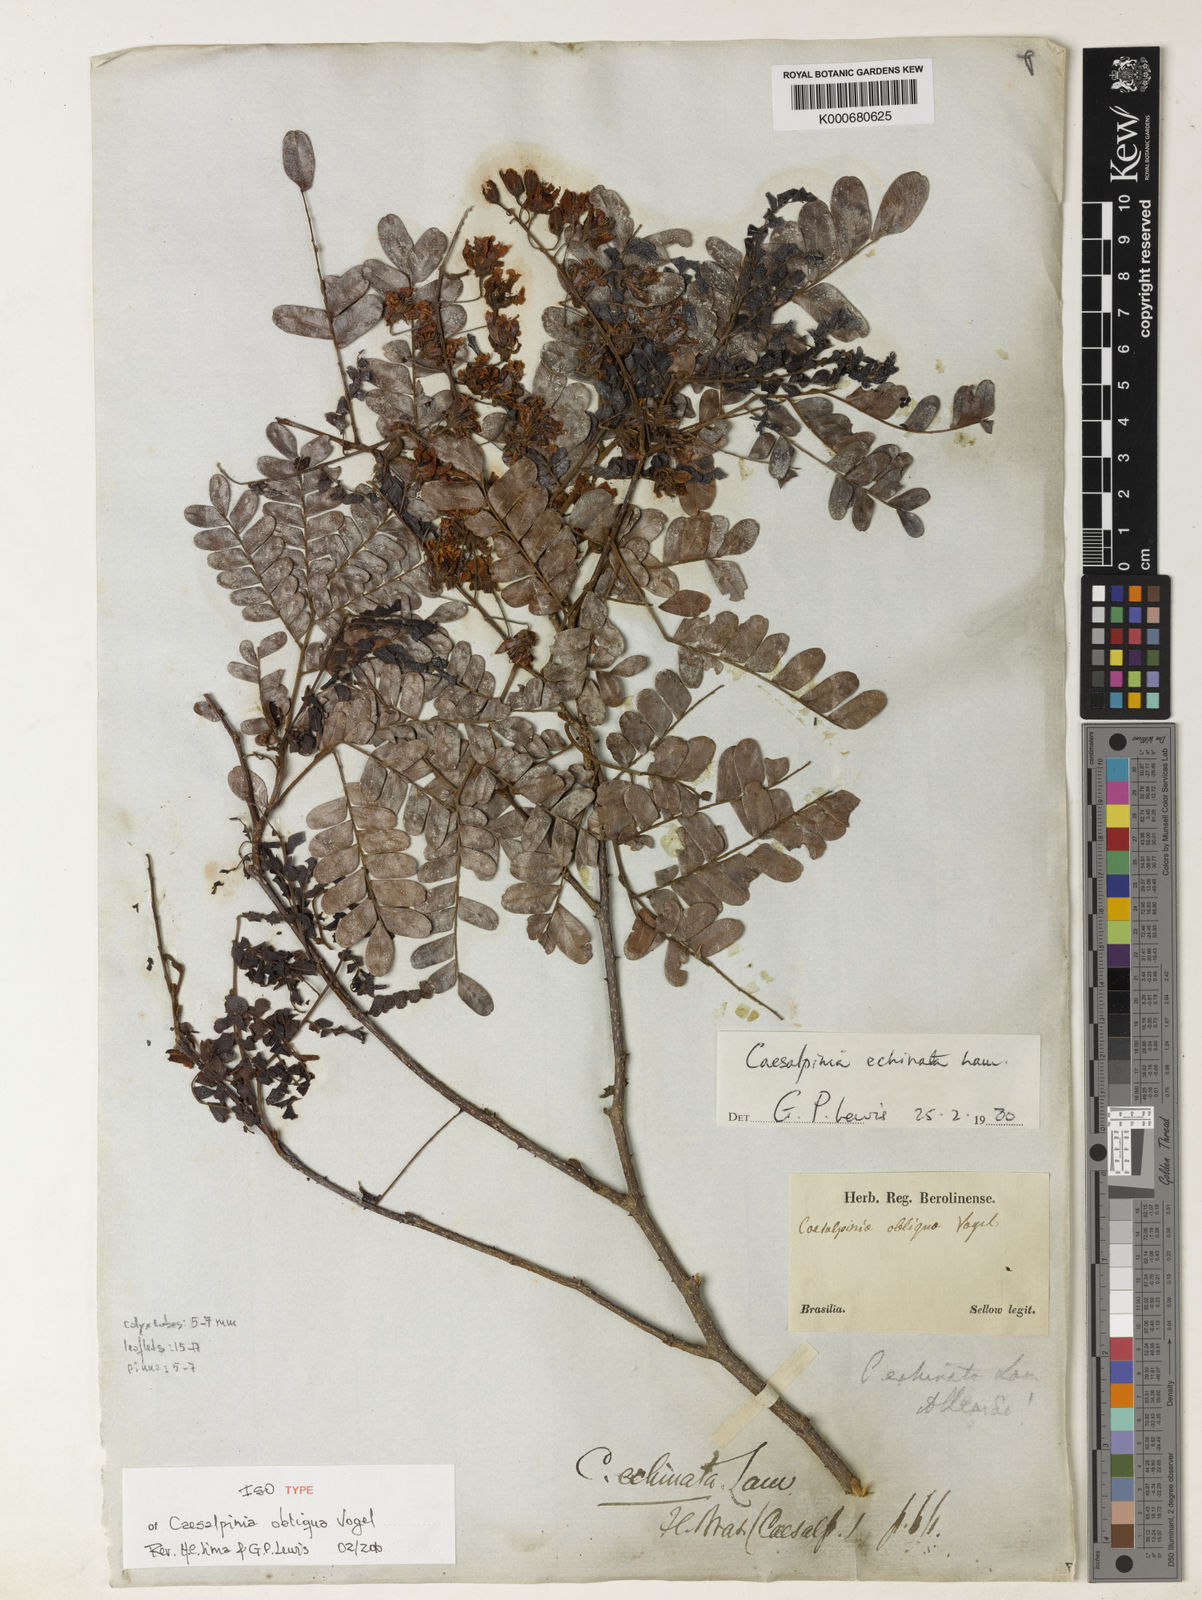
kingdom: Plantae
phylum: Tracheophyta
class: Magnoliopsida
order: Fabales
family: Fabaceae
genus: Paubrasilia
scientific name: Paubrasilia echinata
